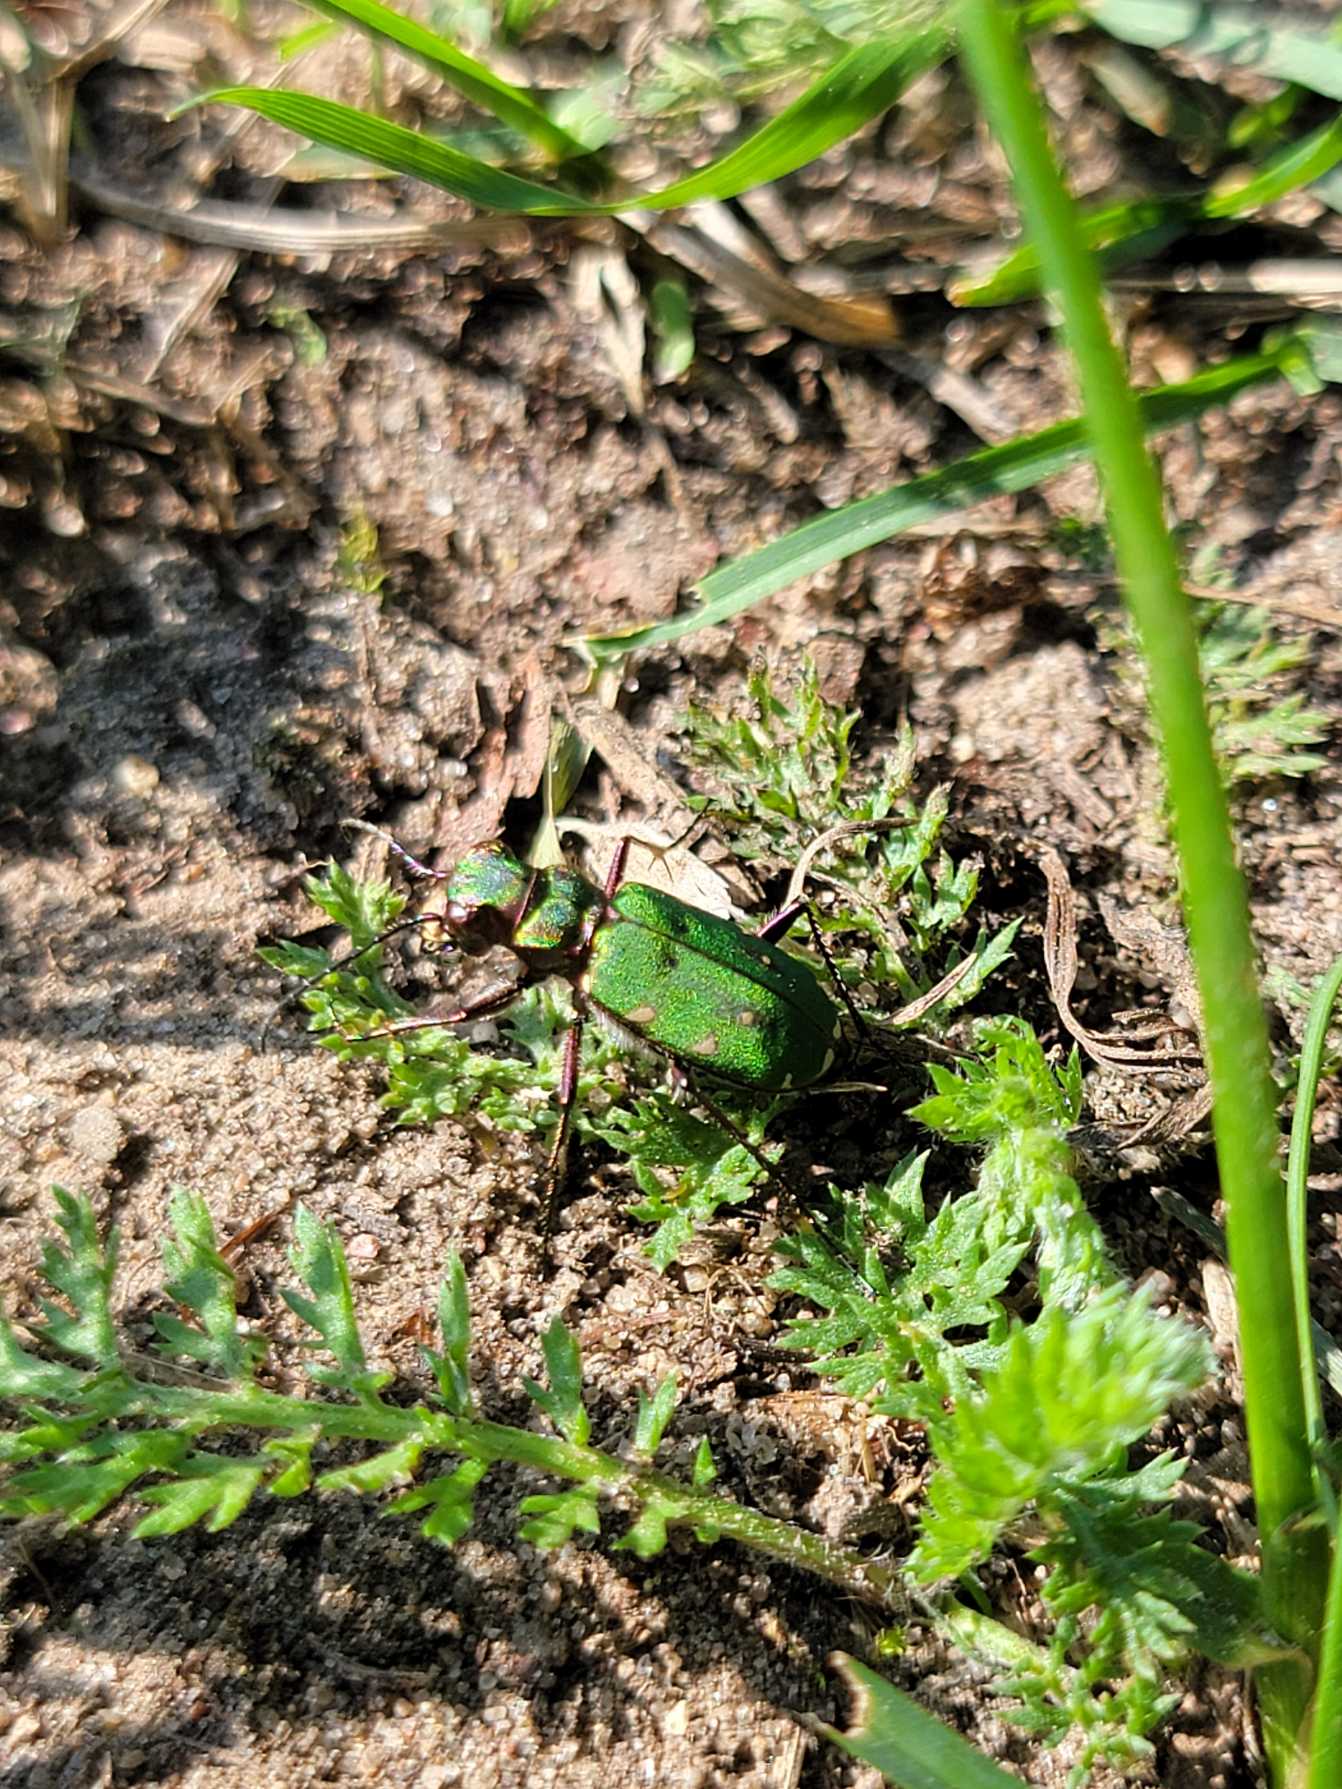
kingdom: Animalia
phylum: Arthropoda
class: Insecta
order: Coleoptera
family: Carabidae
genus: Cicindela
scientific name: Cicindela campestris
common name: Grøn sandspringer
